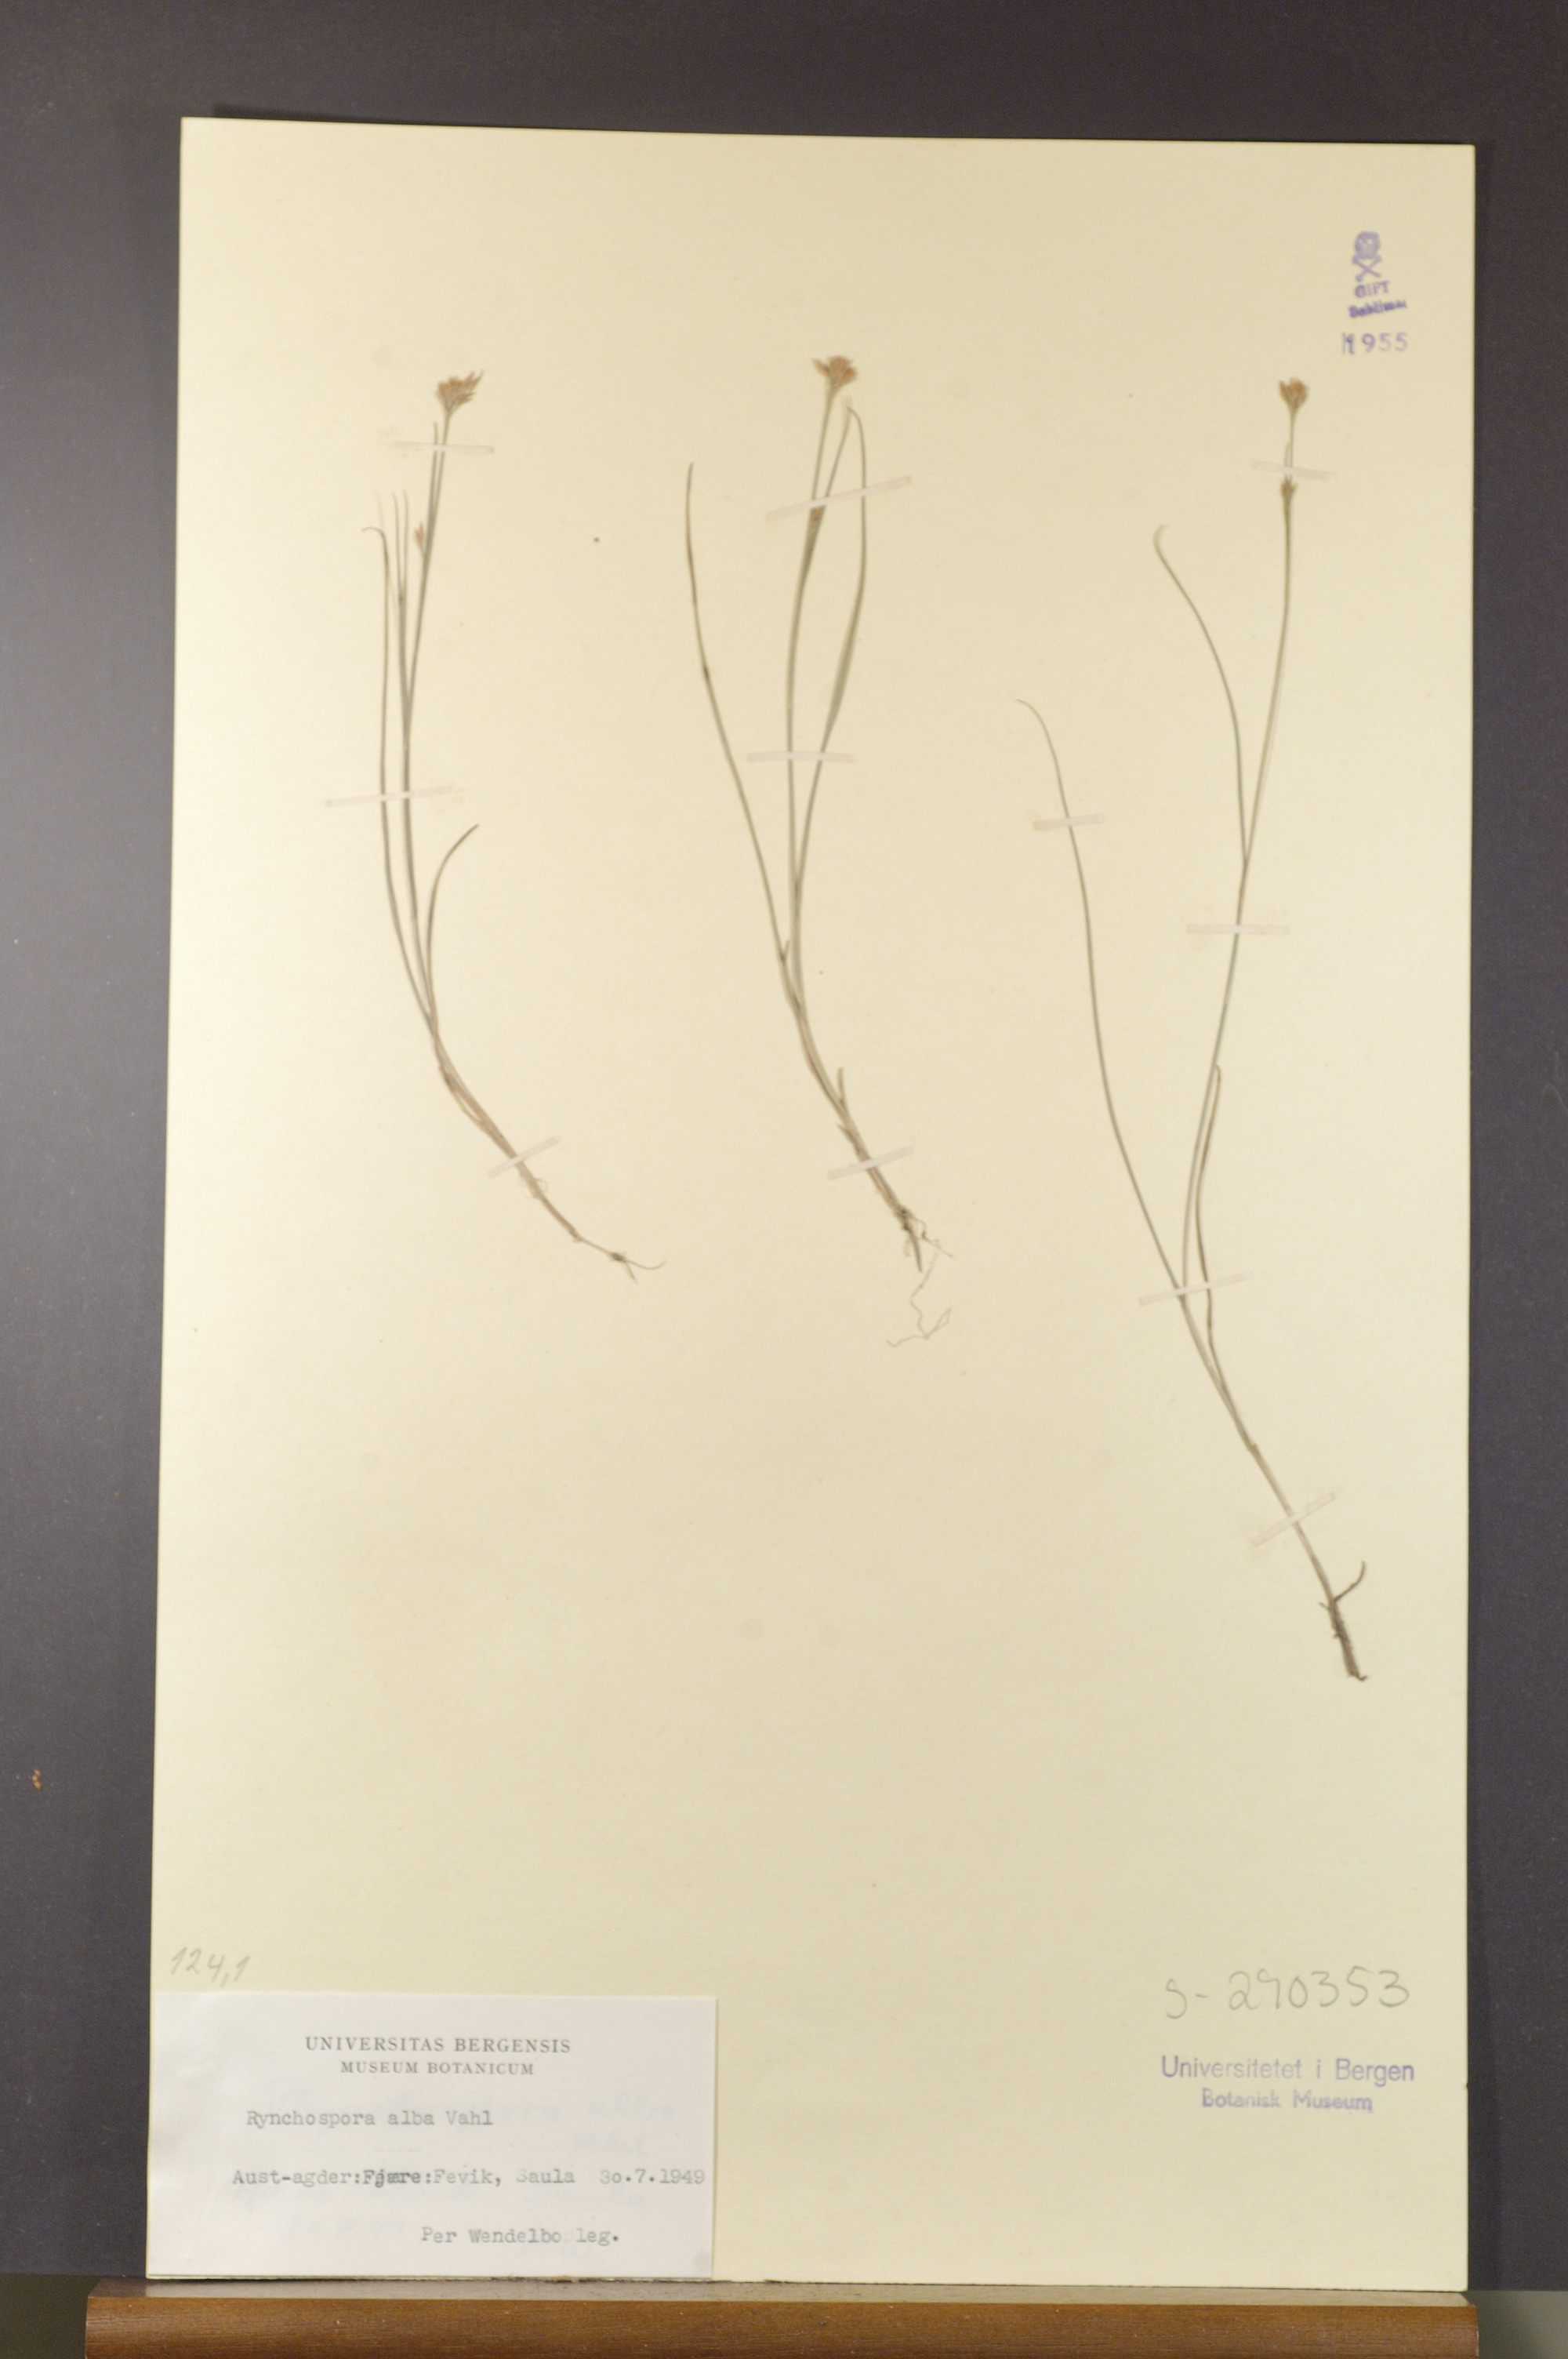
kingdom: Plantae
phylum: Tracheophyta
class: Liliopsida
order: Poales
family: Cyperaceae
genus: Rhynchospora
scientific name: Rhynchospora alba
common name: White beak-sedge
